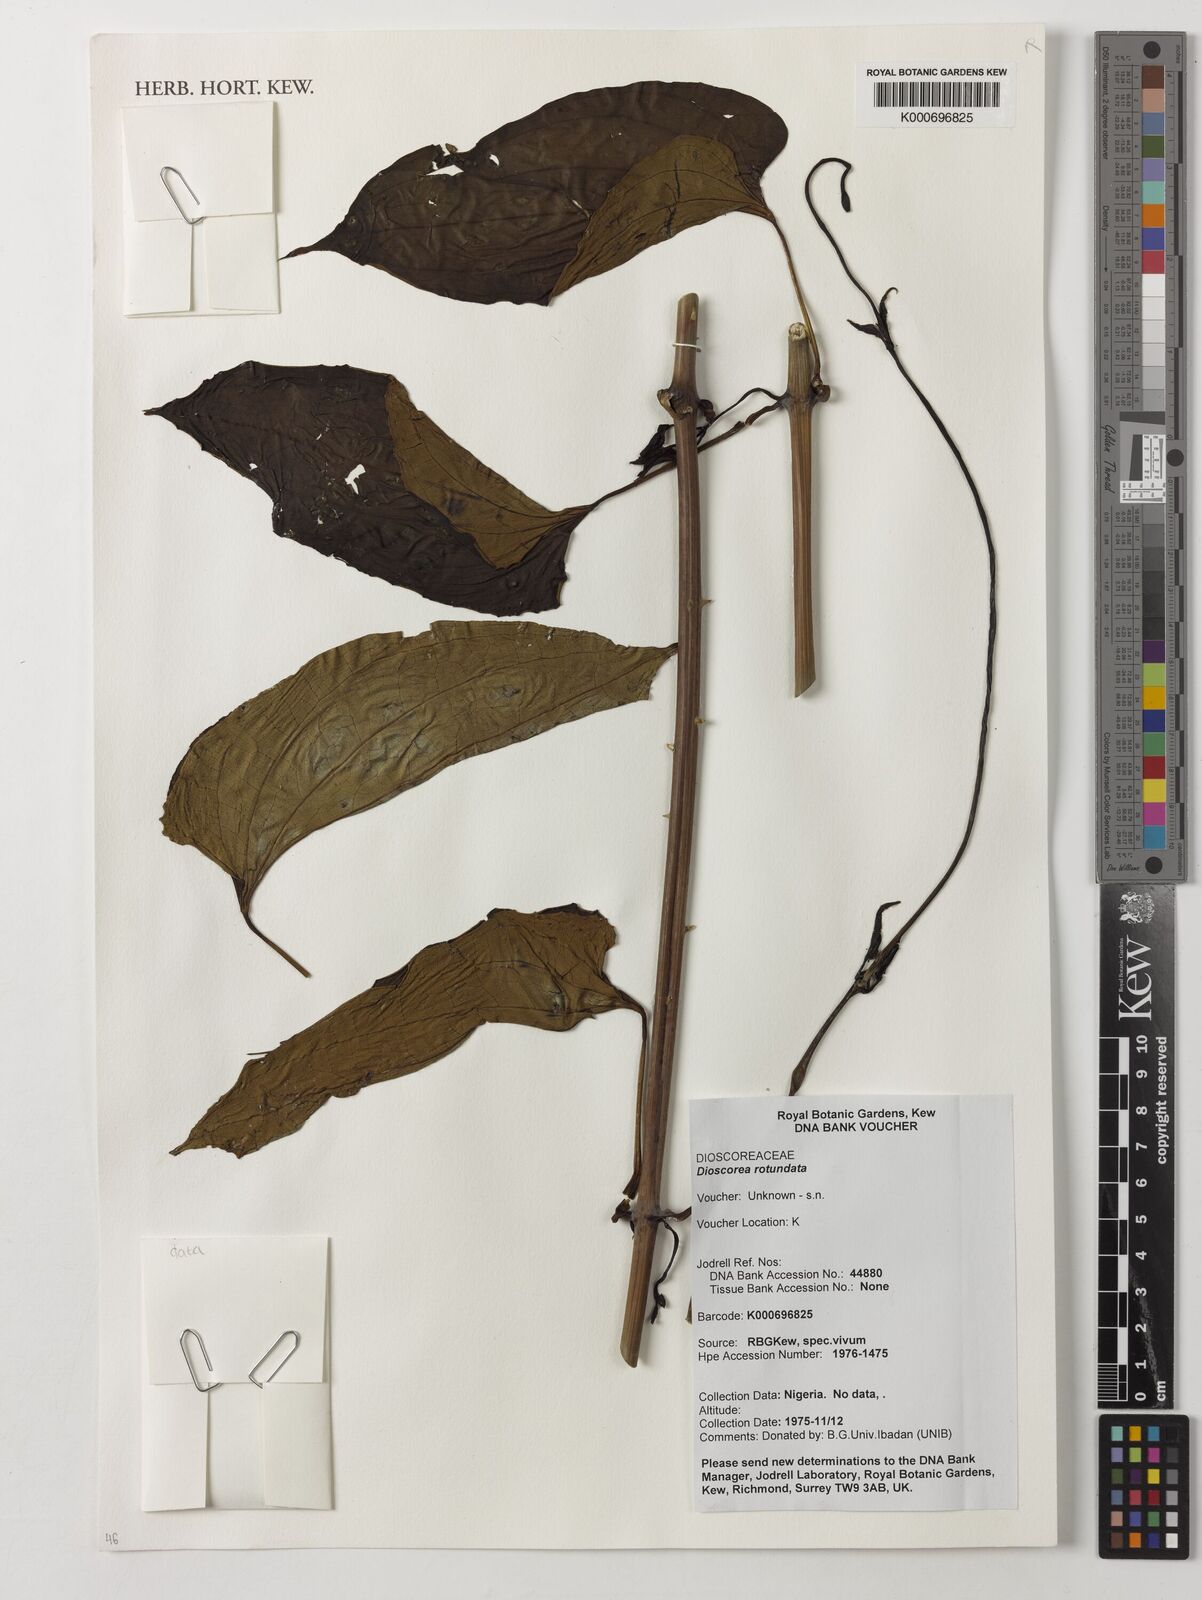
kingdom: Plantae
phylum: Tracheophyta
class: Liliopsida
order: Dioscoreales
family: Dioscoreaceae
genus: Dioscorea
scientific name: Dioscorea cayenensis
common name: Attoto yam
